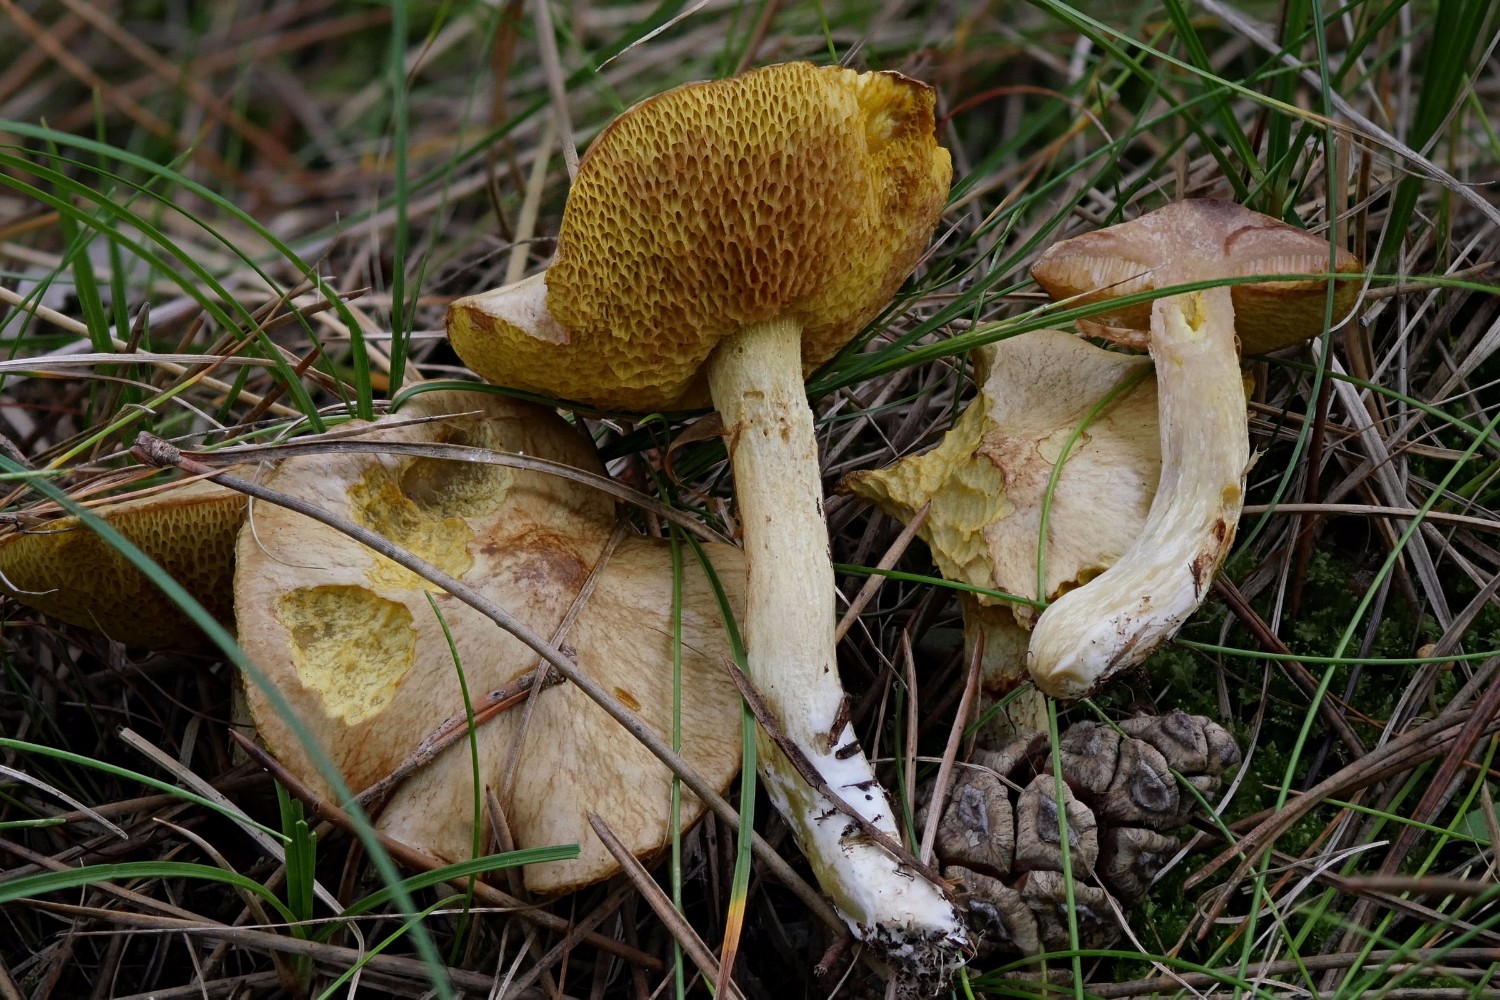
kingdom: Fungi
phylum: Basidiomycota
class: Agaricomycetes
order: Boletales
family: Suillaceae
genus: Suillus
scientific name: Suillus flavidus
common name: mose-slimrørhat
